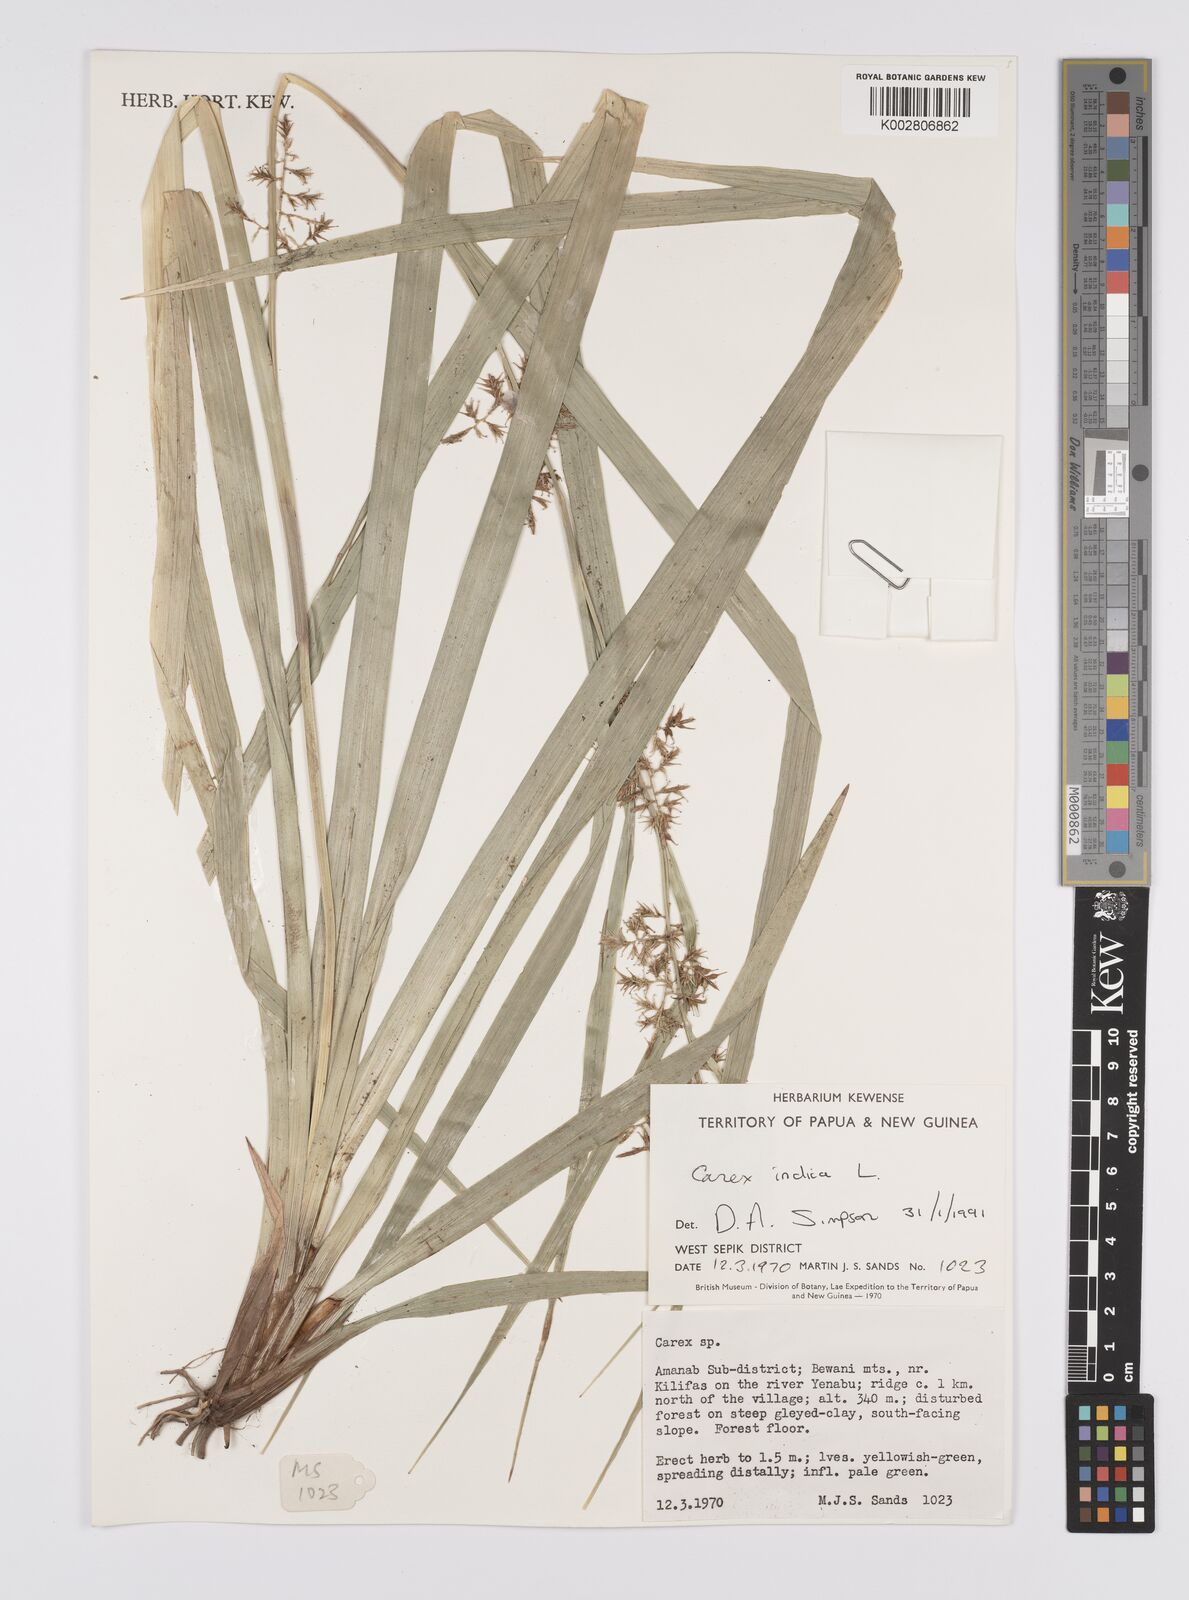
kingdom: Plantae
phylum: Tracheophyta
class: Liliopsida
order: Poales
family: Cyperaceae
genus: Carex
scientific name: Carex indica
